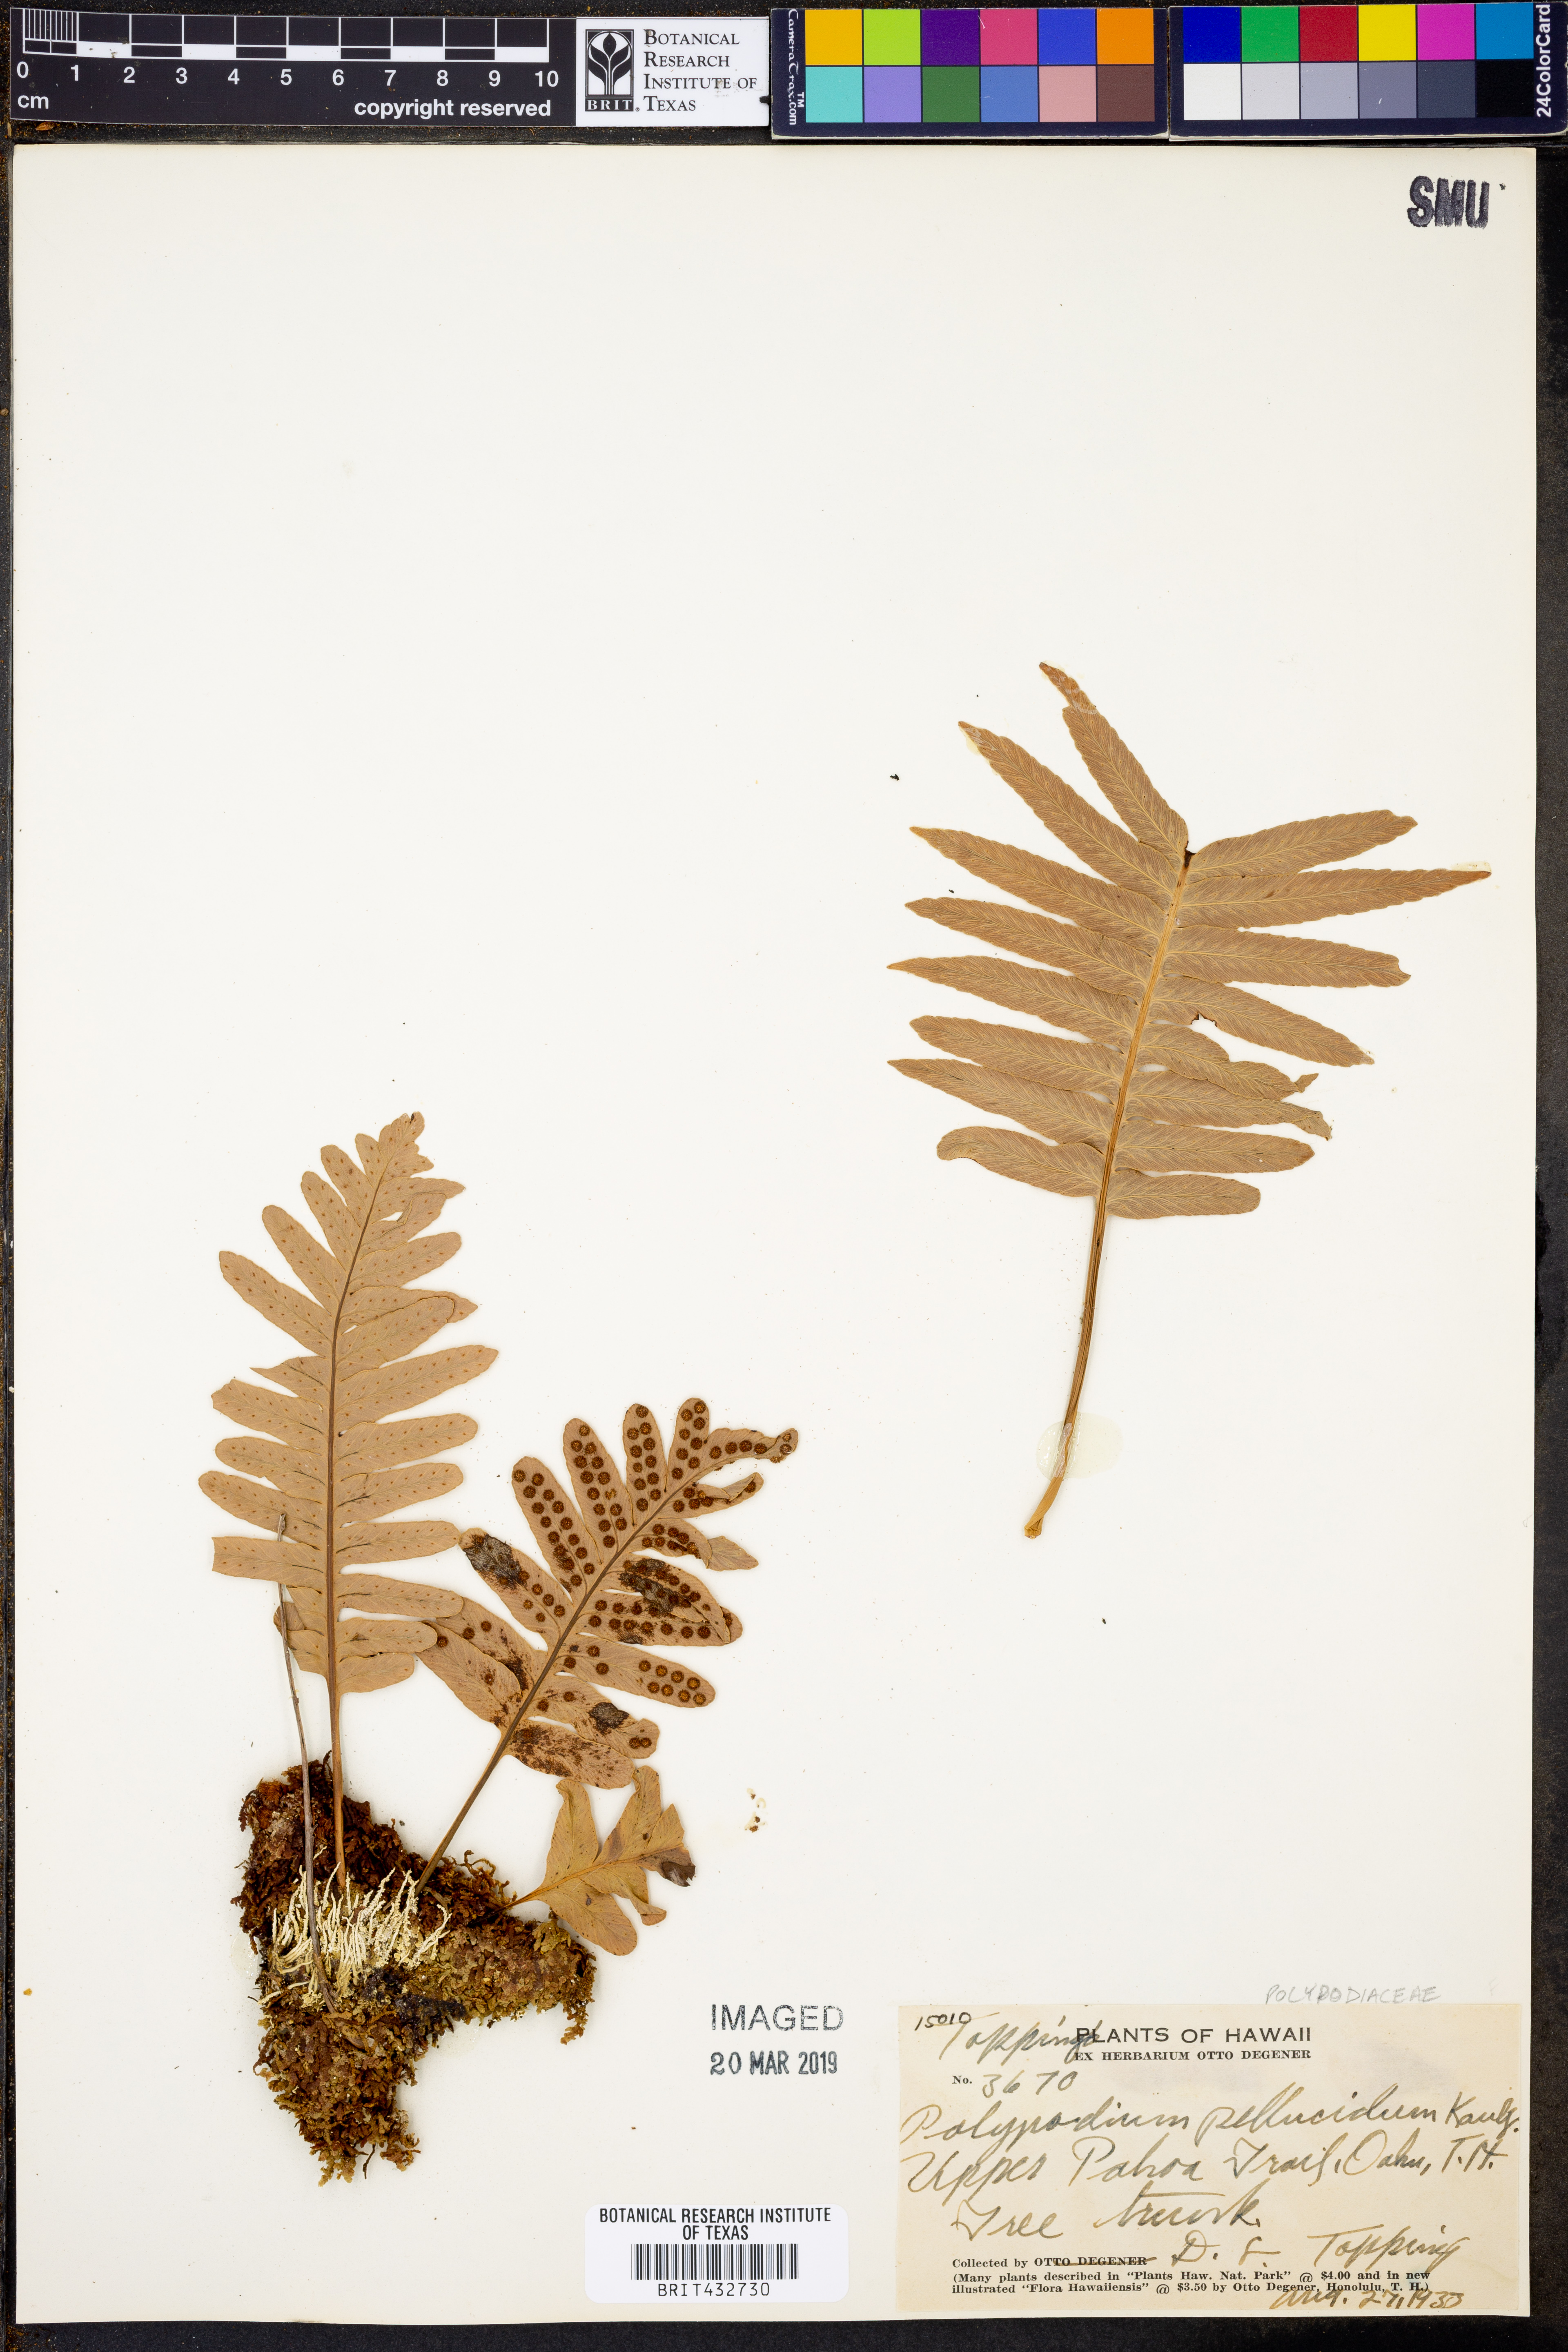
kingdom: Plantae
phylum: Tracheophyta
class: Polypodiopsida
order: Polypodiales
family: Polypodiaceae
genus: Polypodium
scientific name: Polypodium pellucidum
